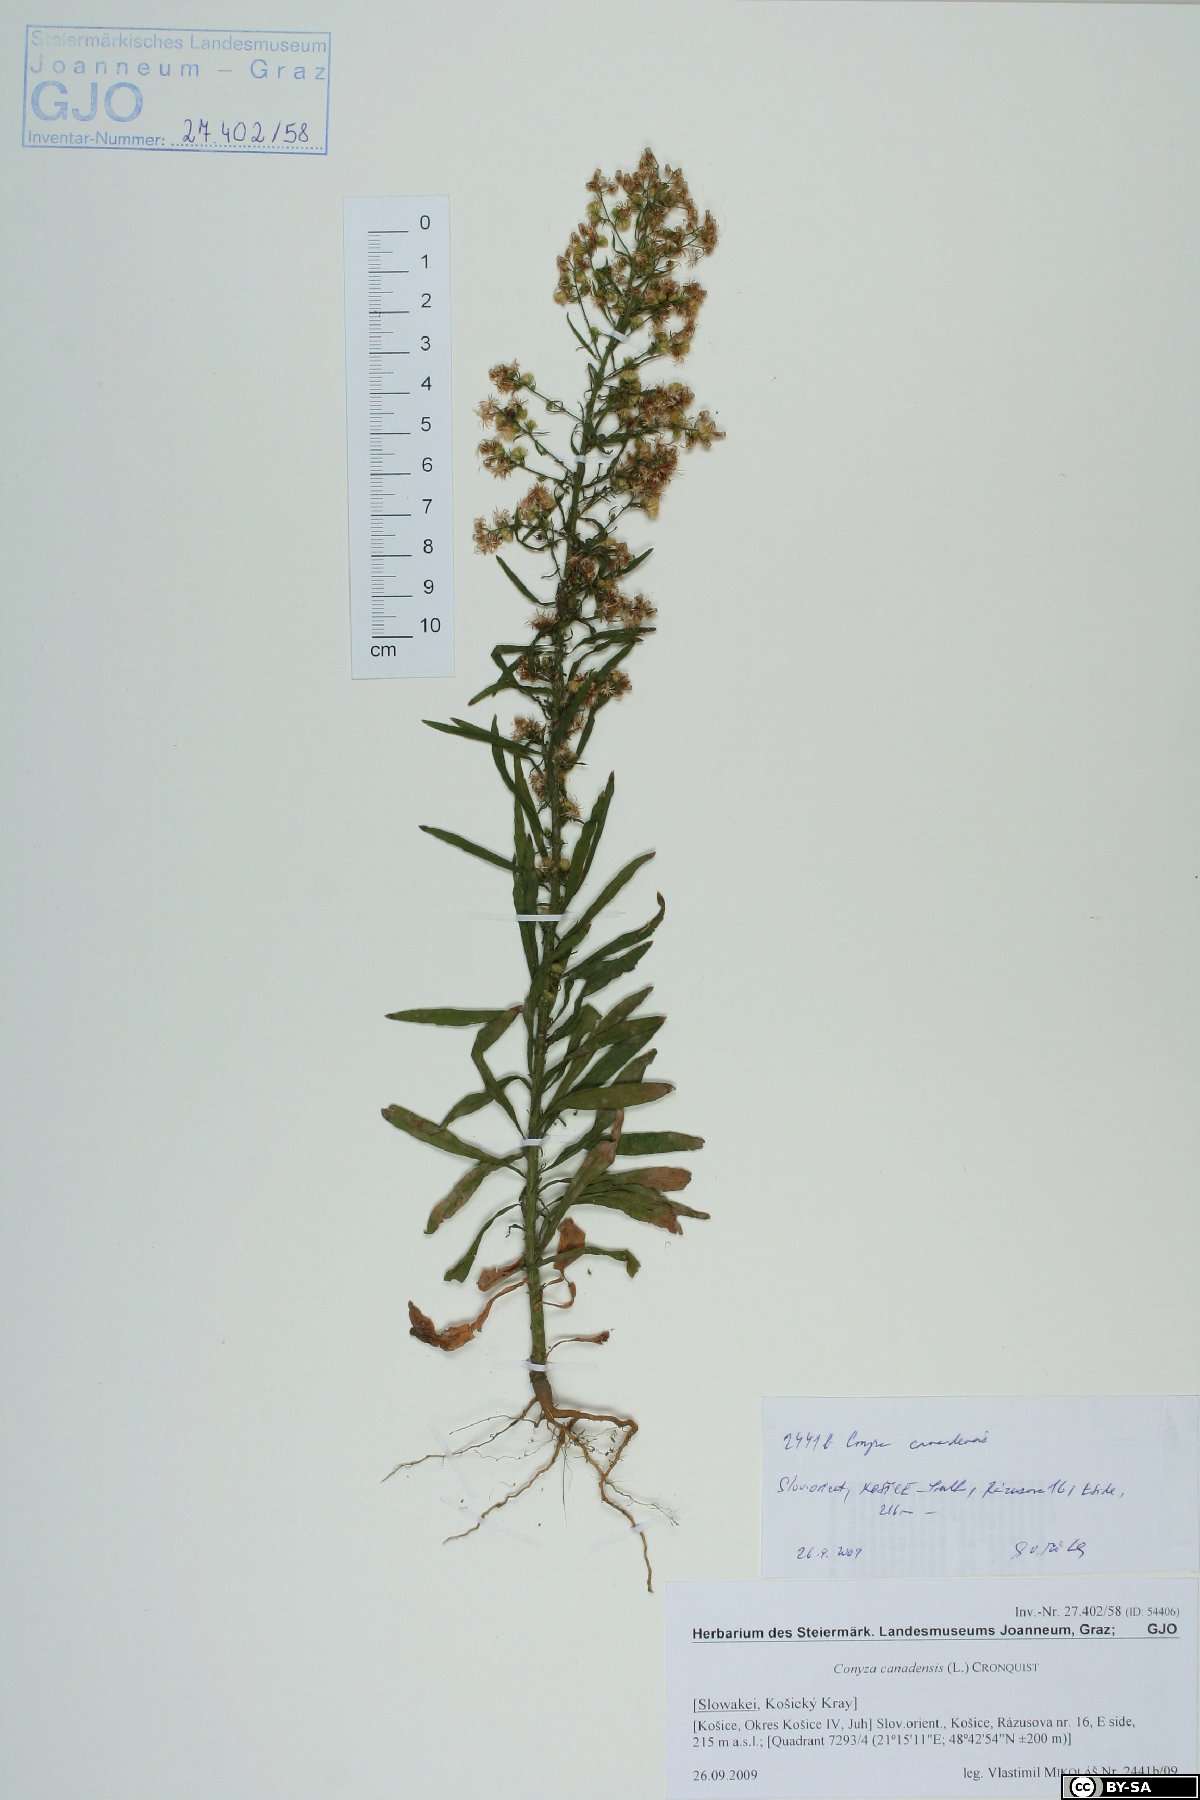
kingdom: Plantae
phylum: Tracheophyta
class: Magnoliopsida
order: Asterales
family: Asteraceae
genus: Erigeron
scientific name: Erigeron canadensis
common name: Canadian fleabane
